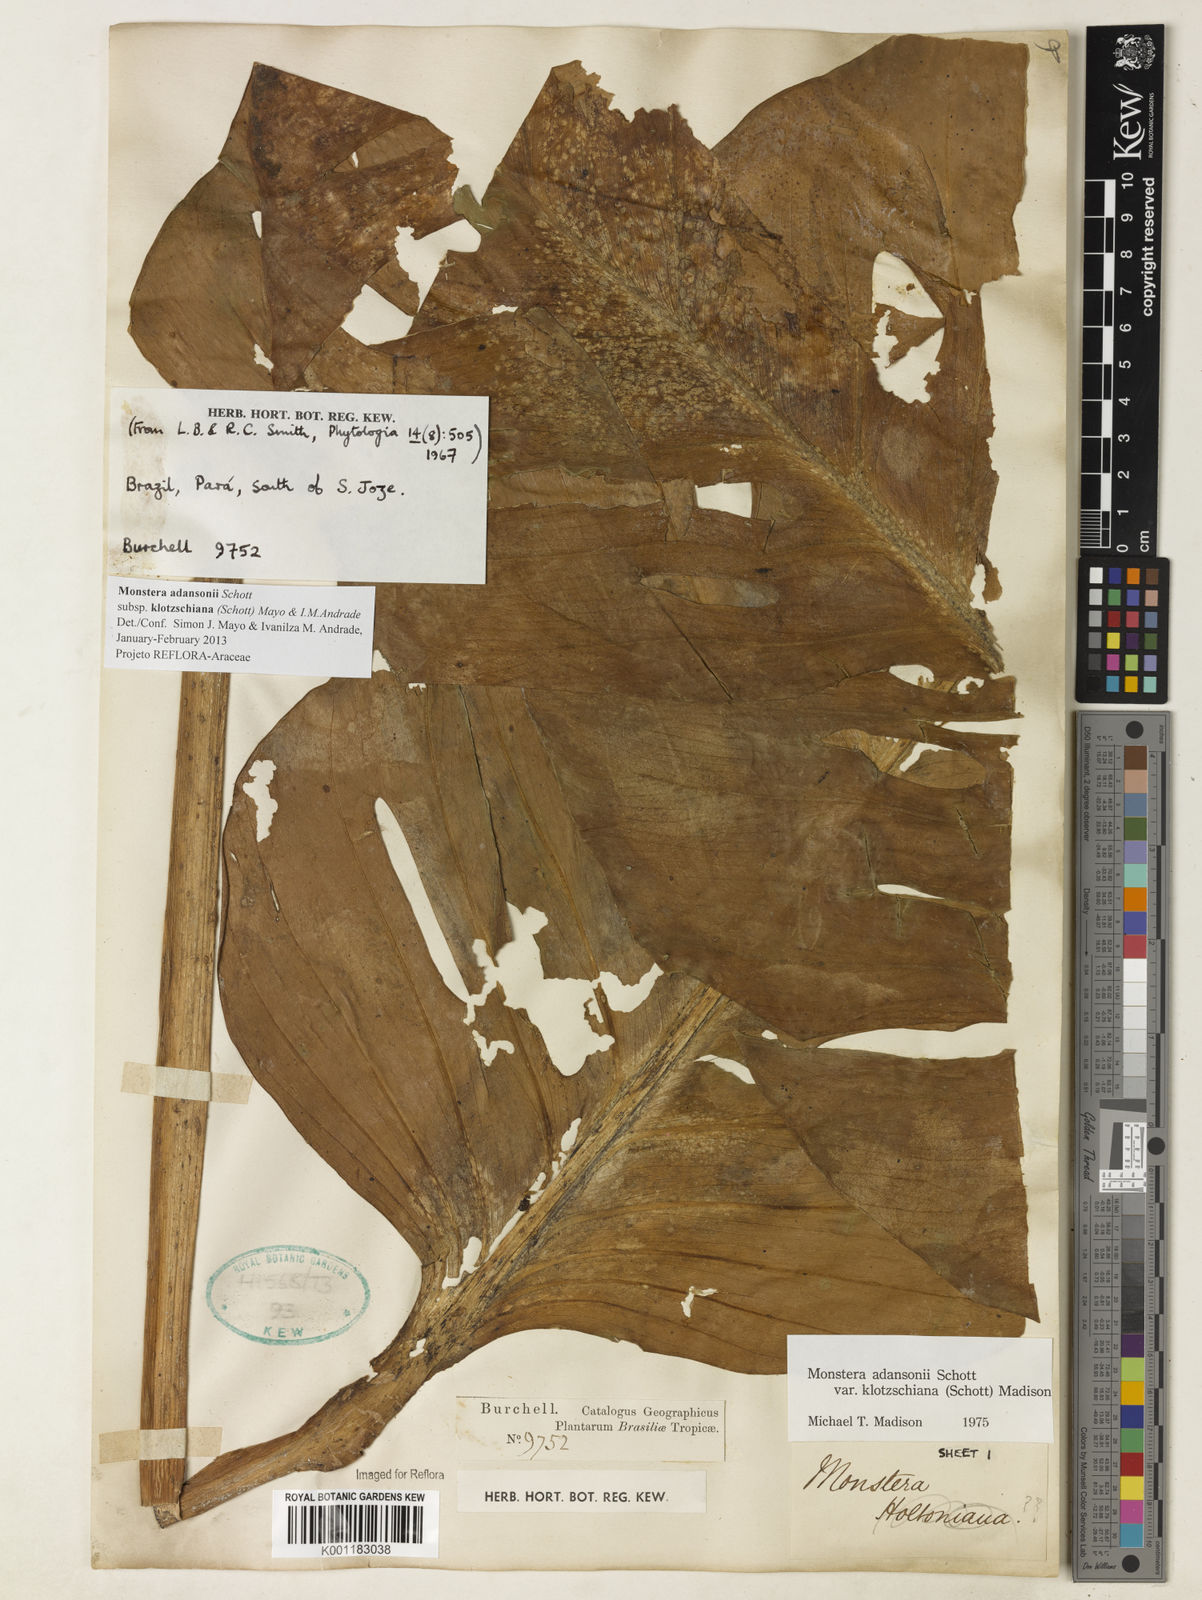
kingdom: Plantae
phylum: Tracheophyta
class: Liliopsida
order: Alismatales
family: Araceae
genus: Monstera
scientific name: Monstera adansonii
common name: Tarovine
